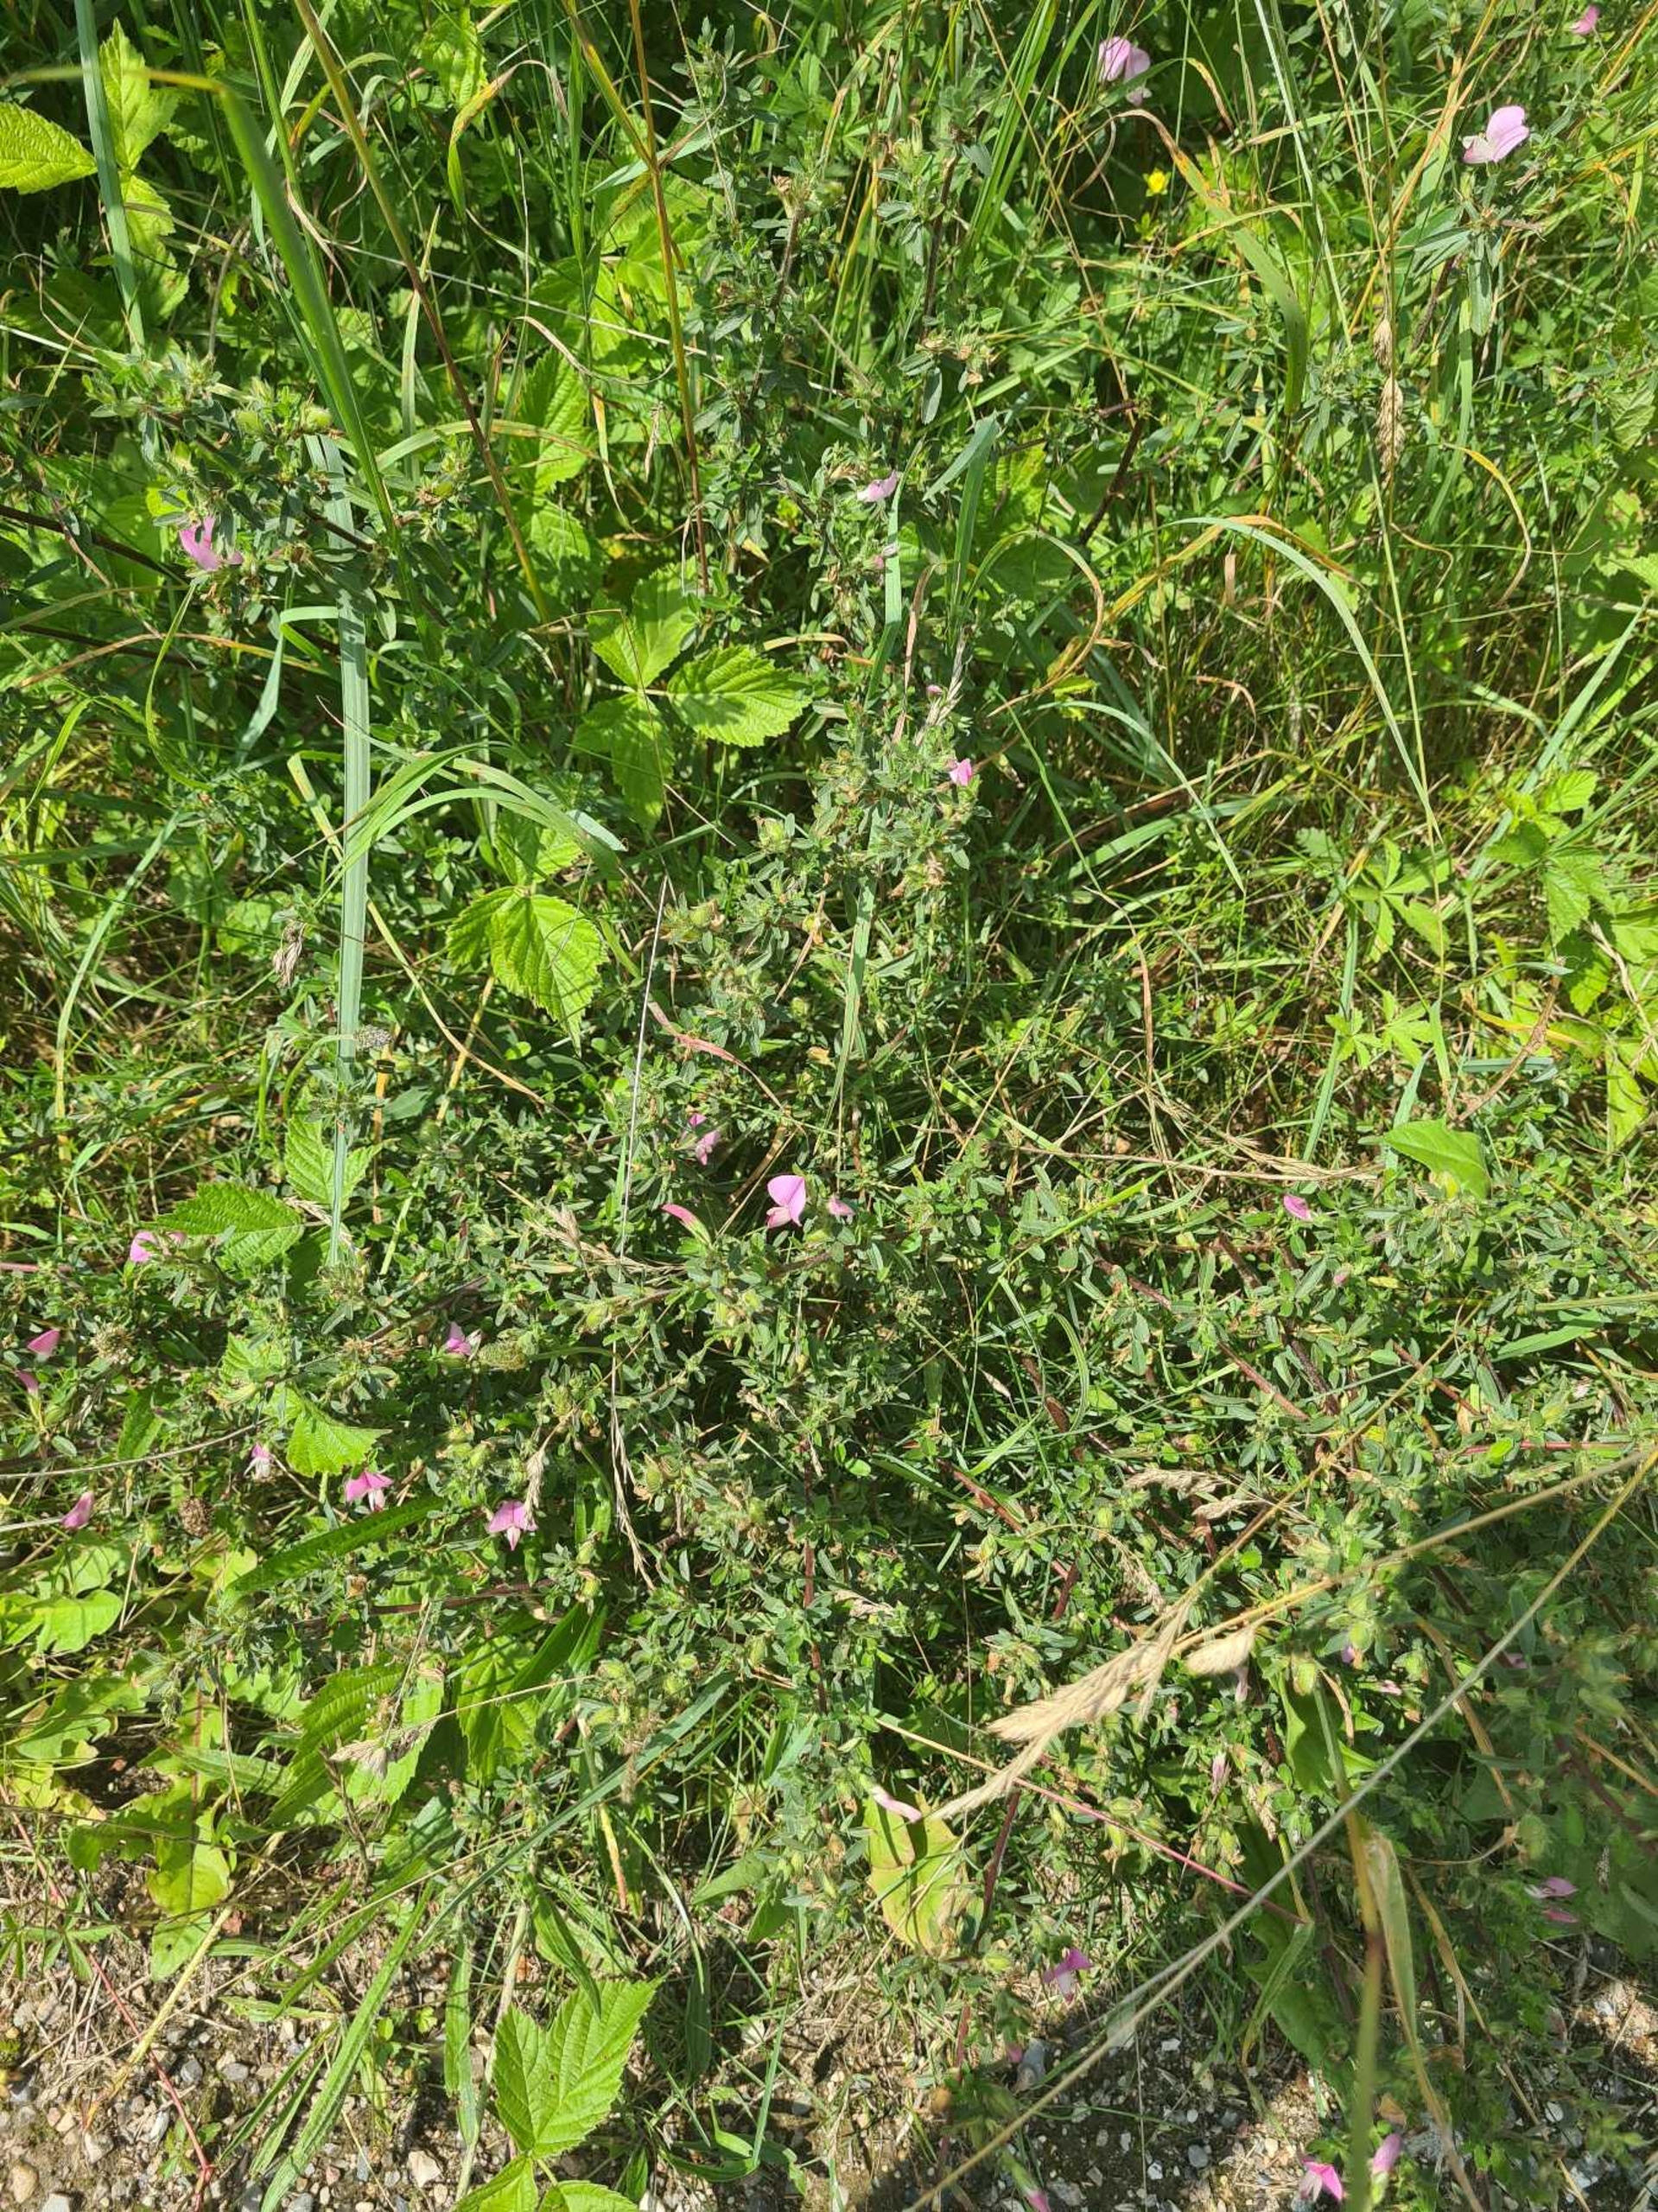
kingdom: Plantae
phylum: Tracheophyta
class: Magnoliopsida
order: Fabales
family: Fabaceae
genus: Ononis
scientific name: Ononis spinosa
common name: Mark-krageklo
